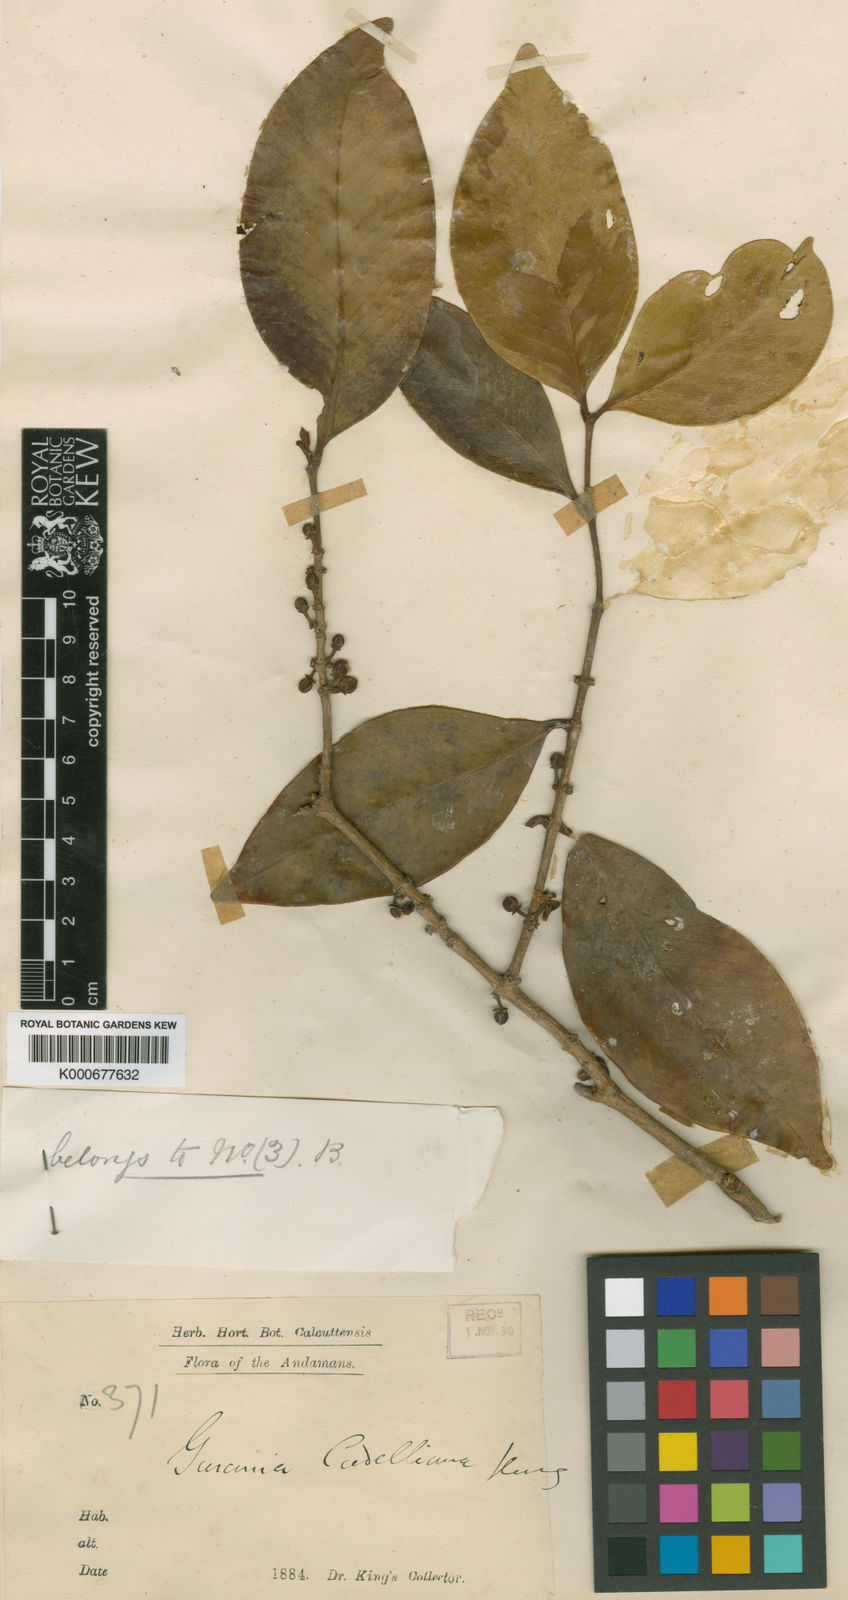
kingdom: Plantae
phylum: Tracheophyta
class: Magnoliopsida
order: Malpighiales
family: Clusiaceae
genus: Garcinia
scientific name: Garcinia cadelliana
